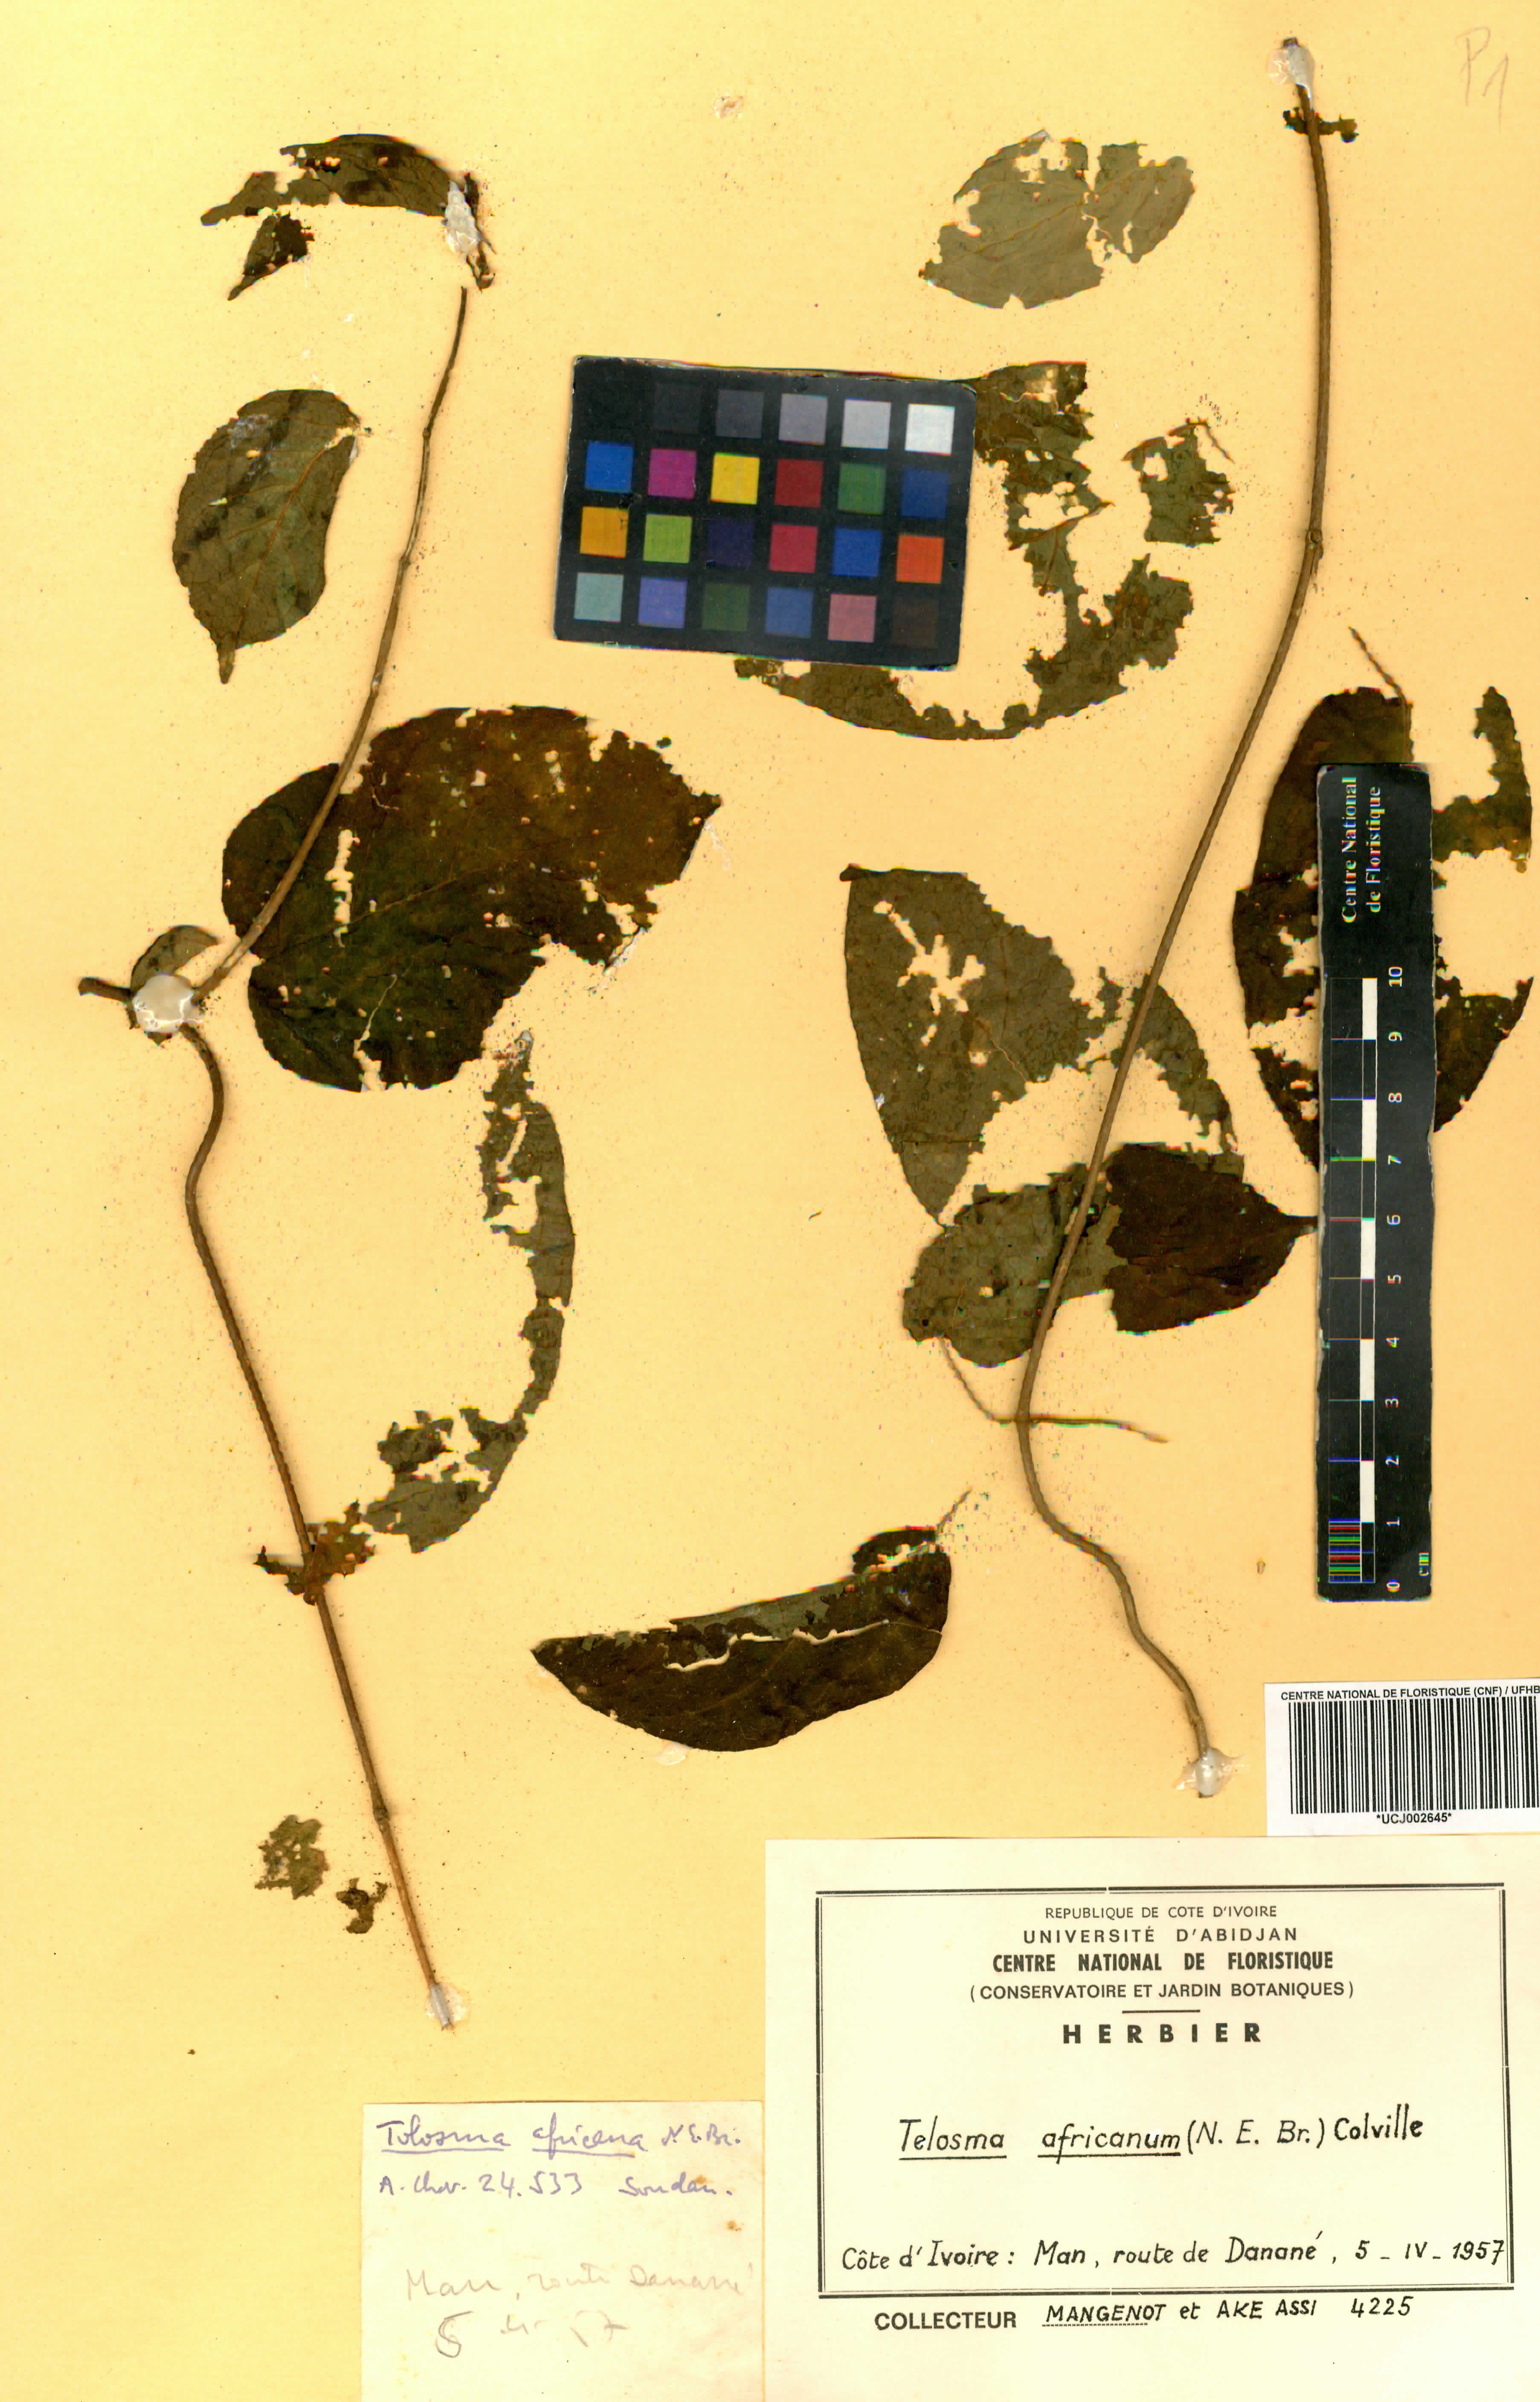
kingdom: Plantae
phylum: Tracheophyta
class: Magnoliopsida
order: Gentianales
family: Apocynaceae
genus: Telosma
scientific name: Telosma africana
